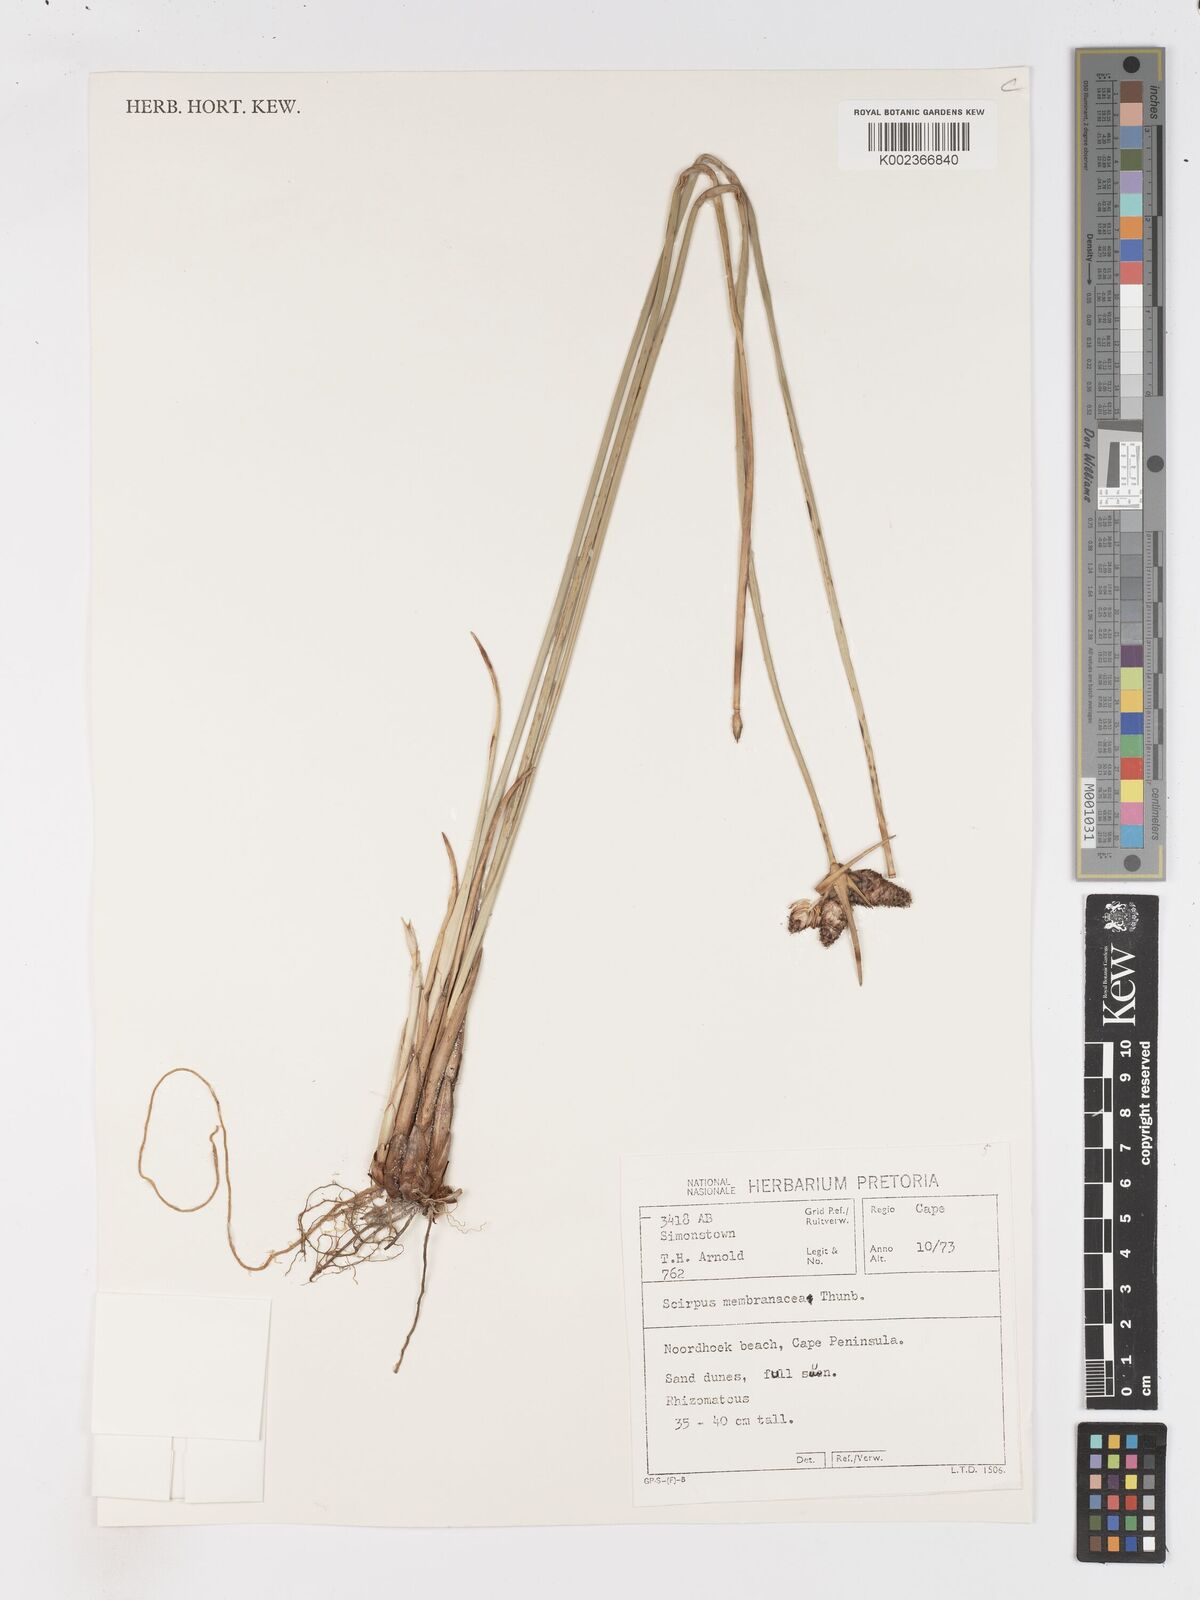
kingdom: Plantae
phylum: Tracheophyta
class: Liliopsida
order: Poales
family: Cyperaceae
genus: Hellmuthia
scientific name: Hellmuthia membranacea
